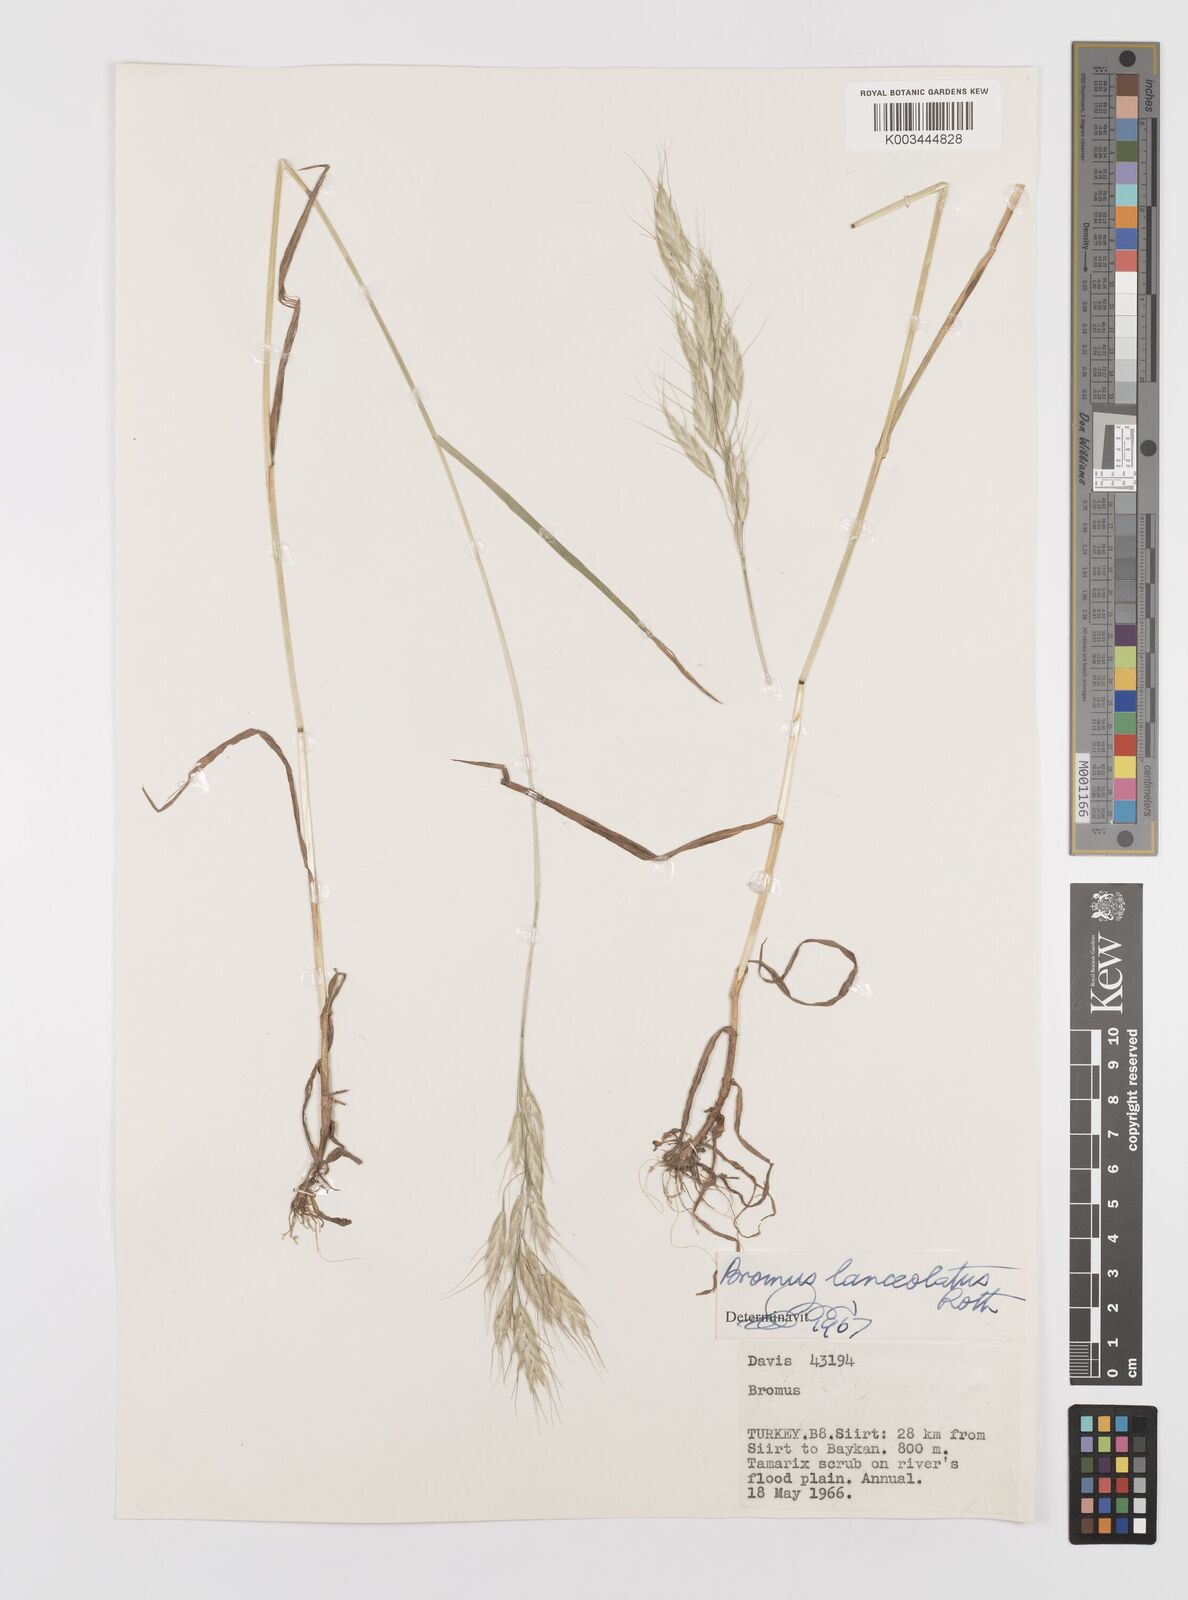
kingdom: Plantae
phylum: Tracheophyta
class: Liliopsida
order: Poales
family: Poaceae
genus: Bromus
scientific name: Bromus lanceolatus
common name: Mediterranean brome
